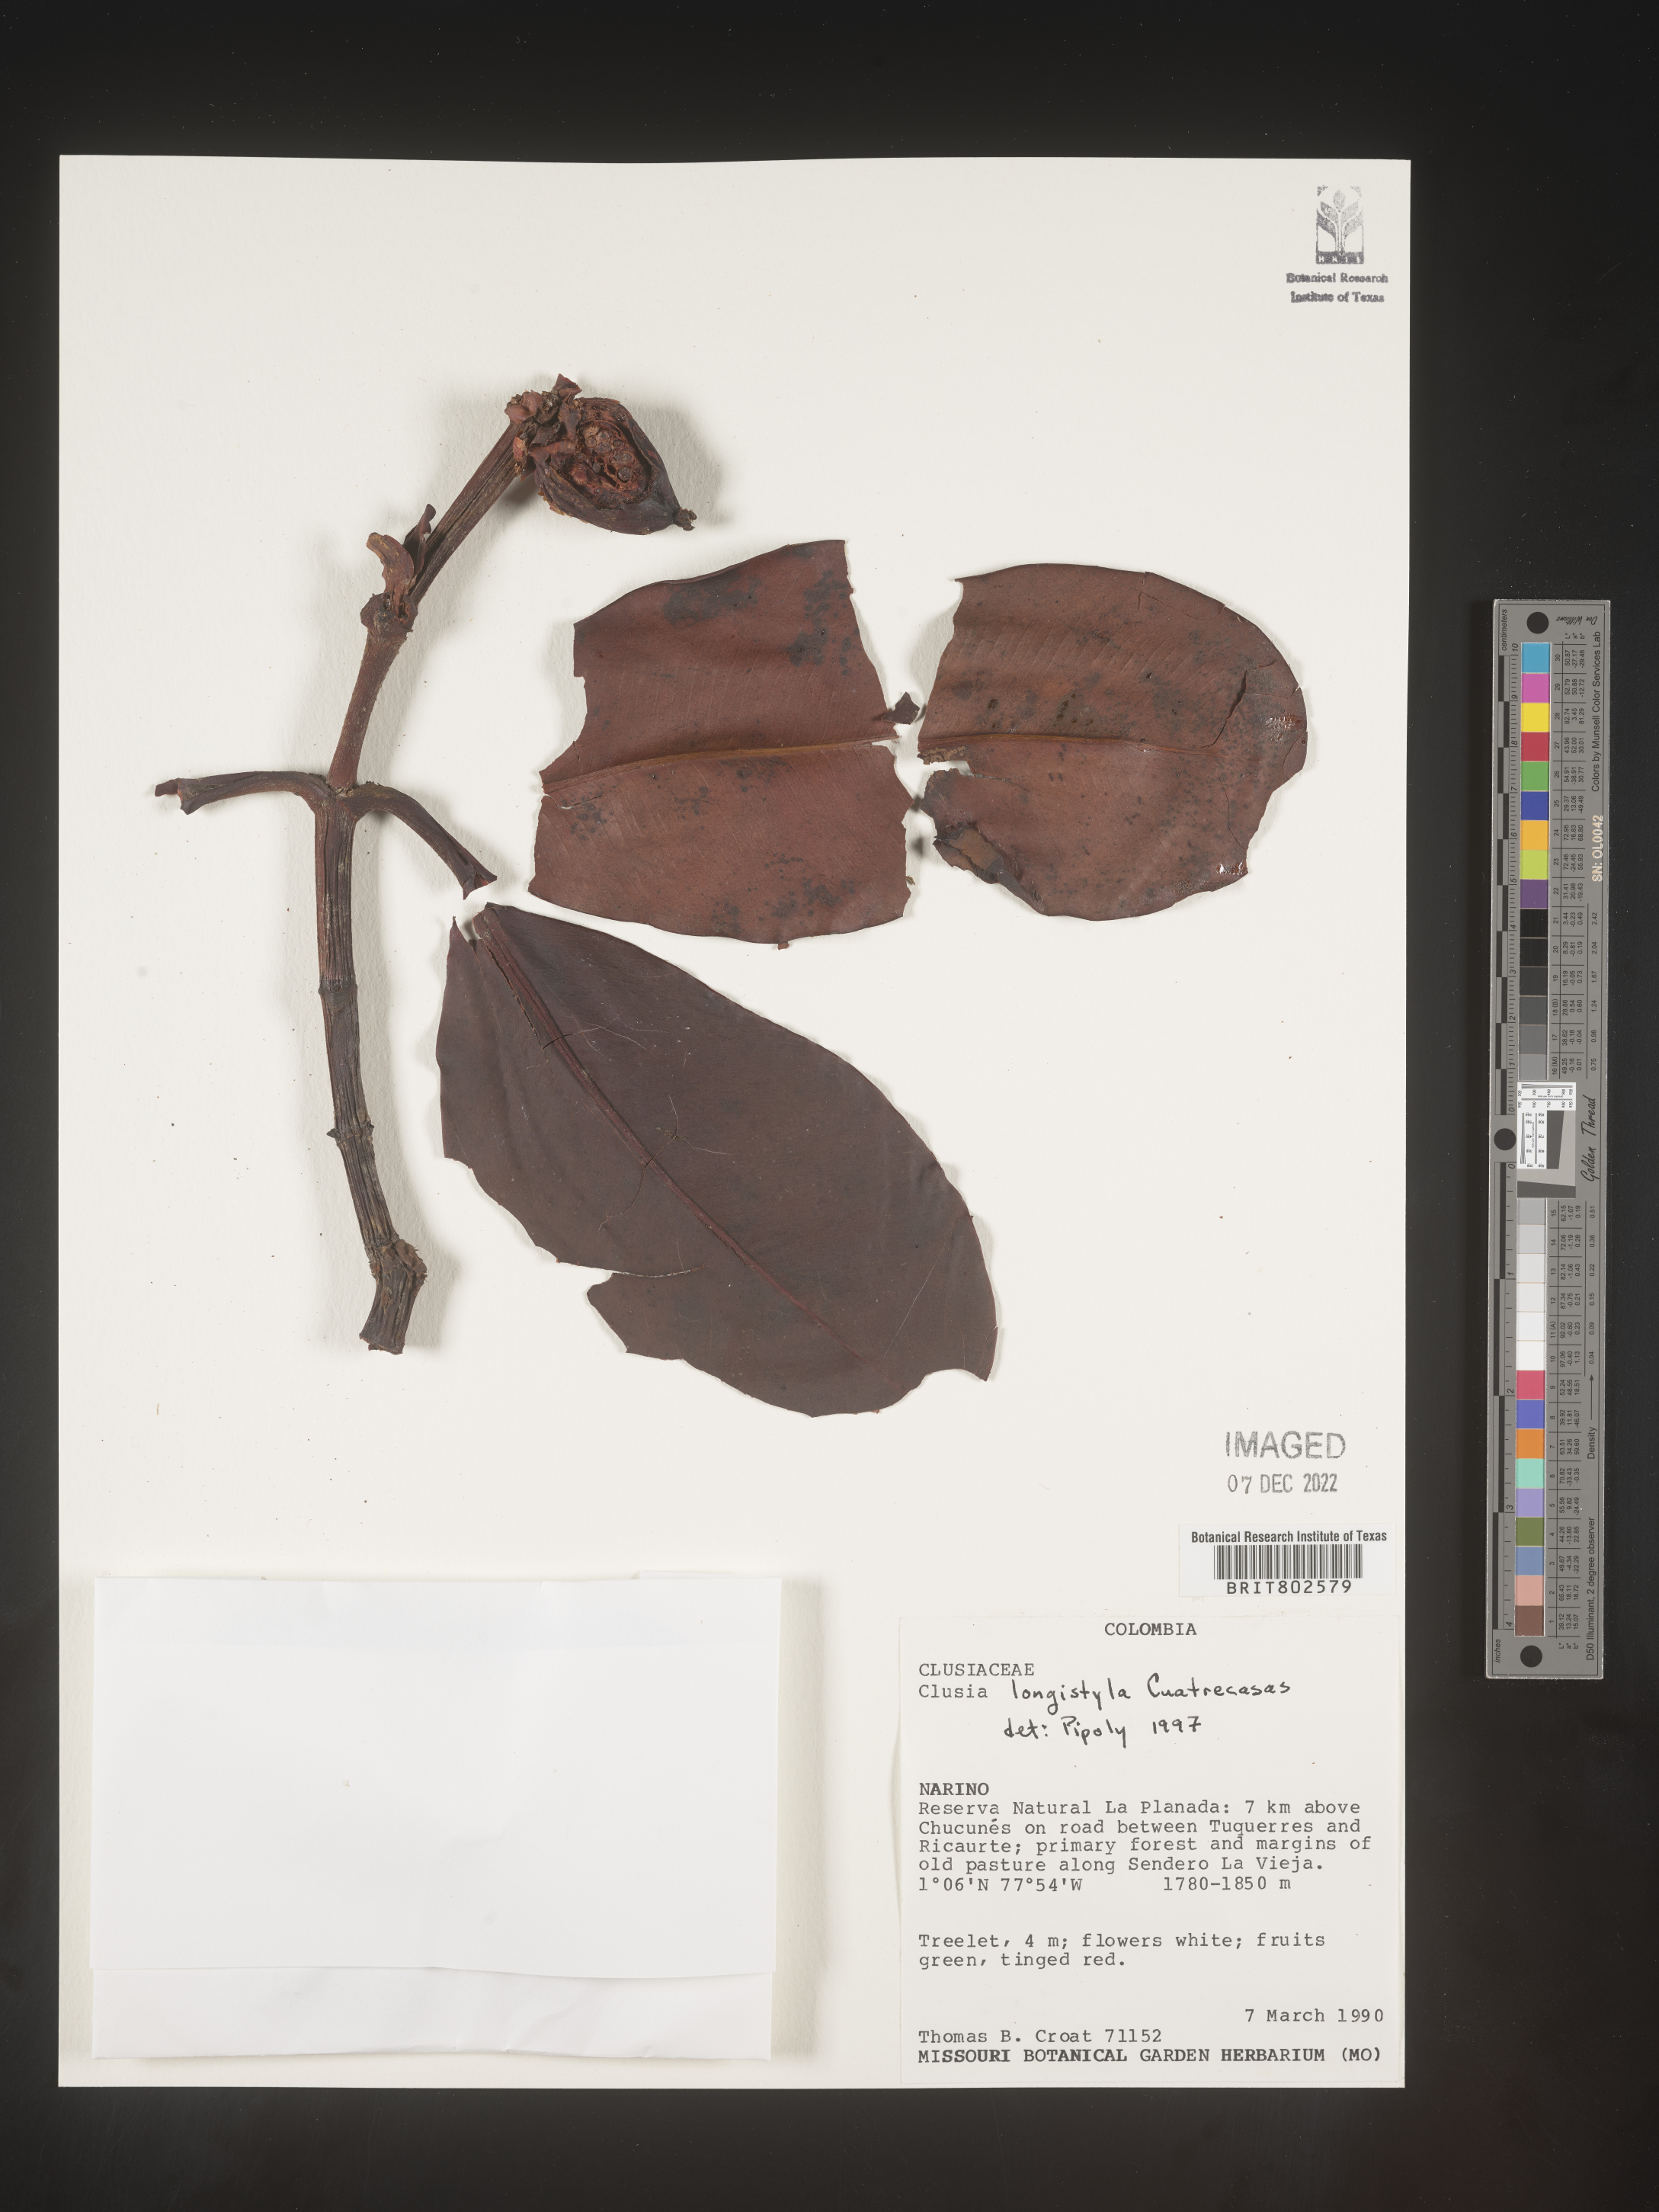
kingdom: Plantae
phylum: Tracheophyta
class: Magnoliopsida
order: Malpighiales
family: Clusiaceae
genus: Clusia
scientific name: Clusia rotundata
